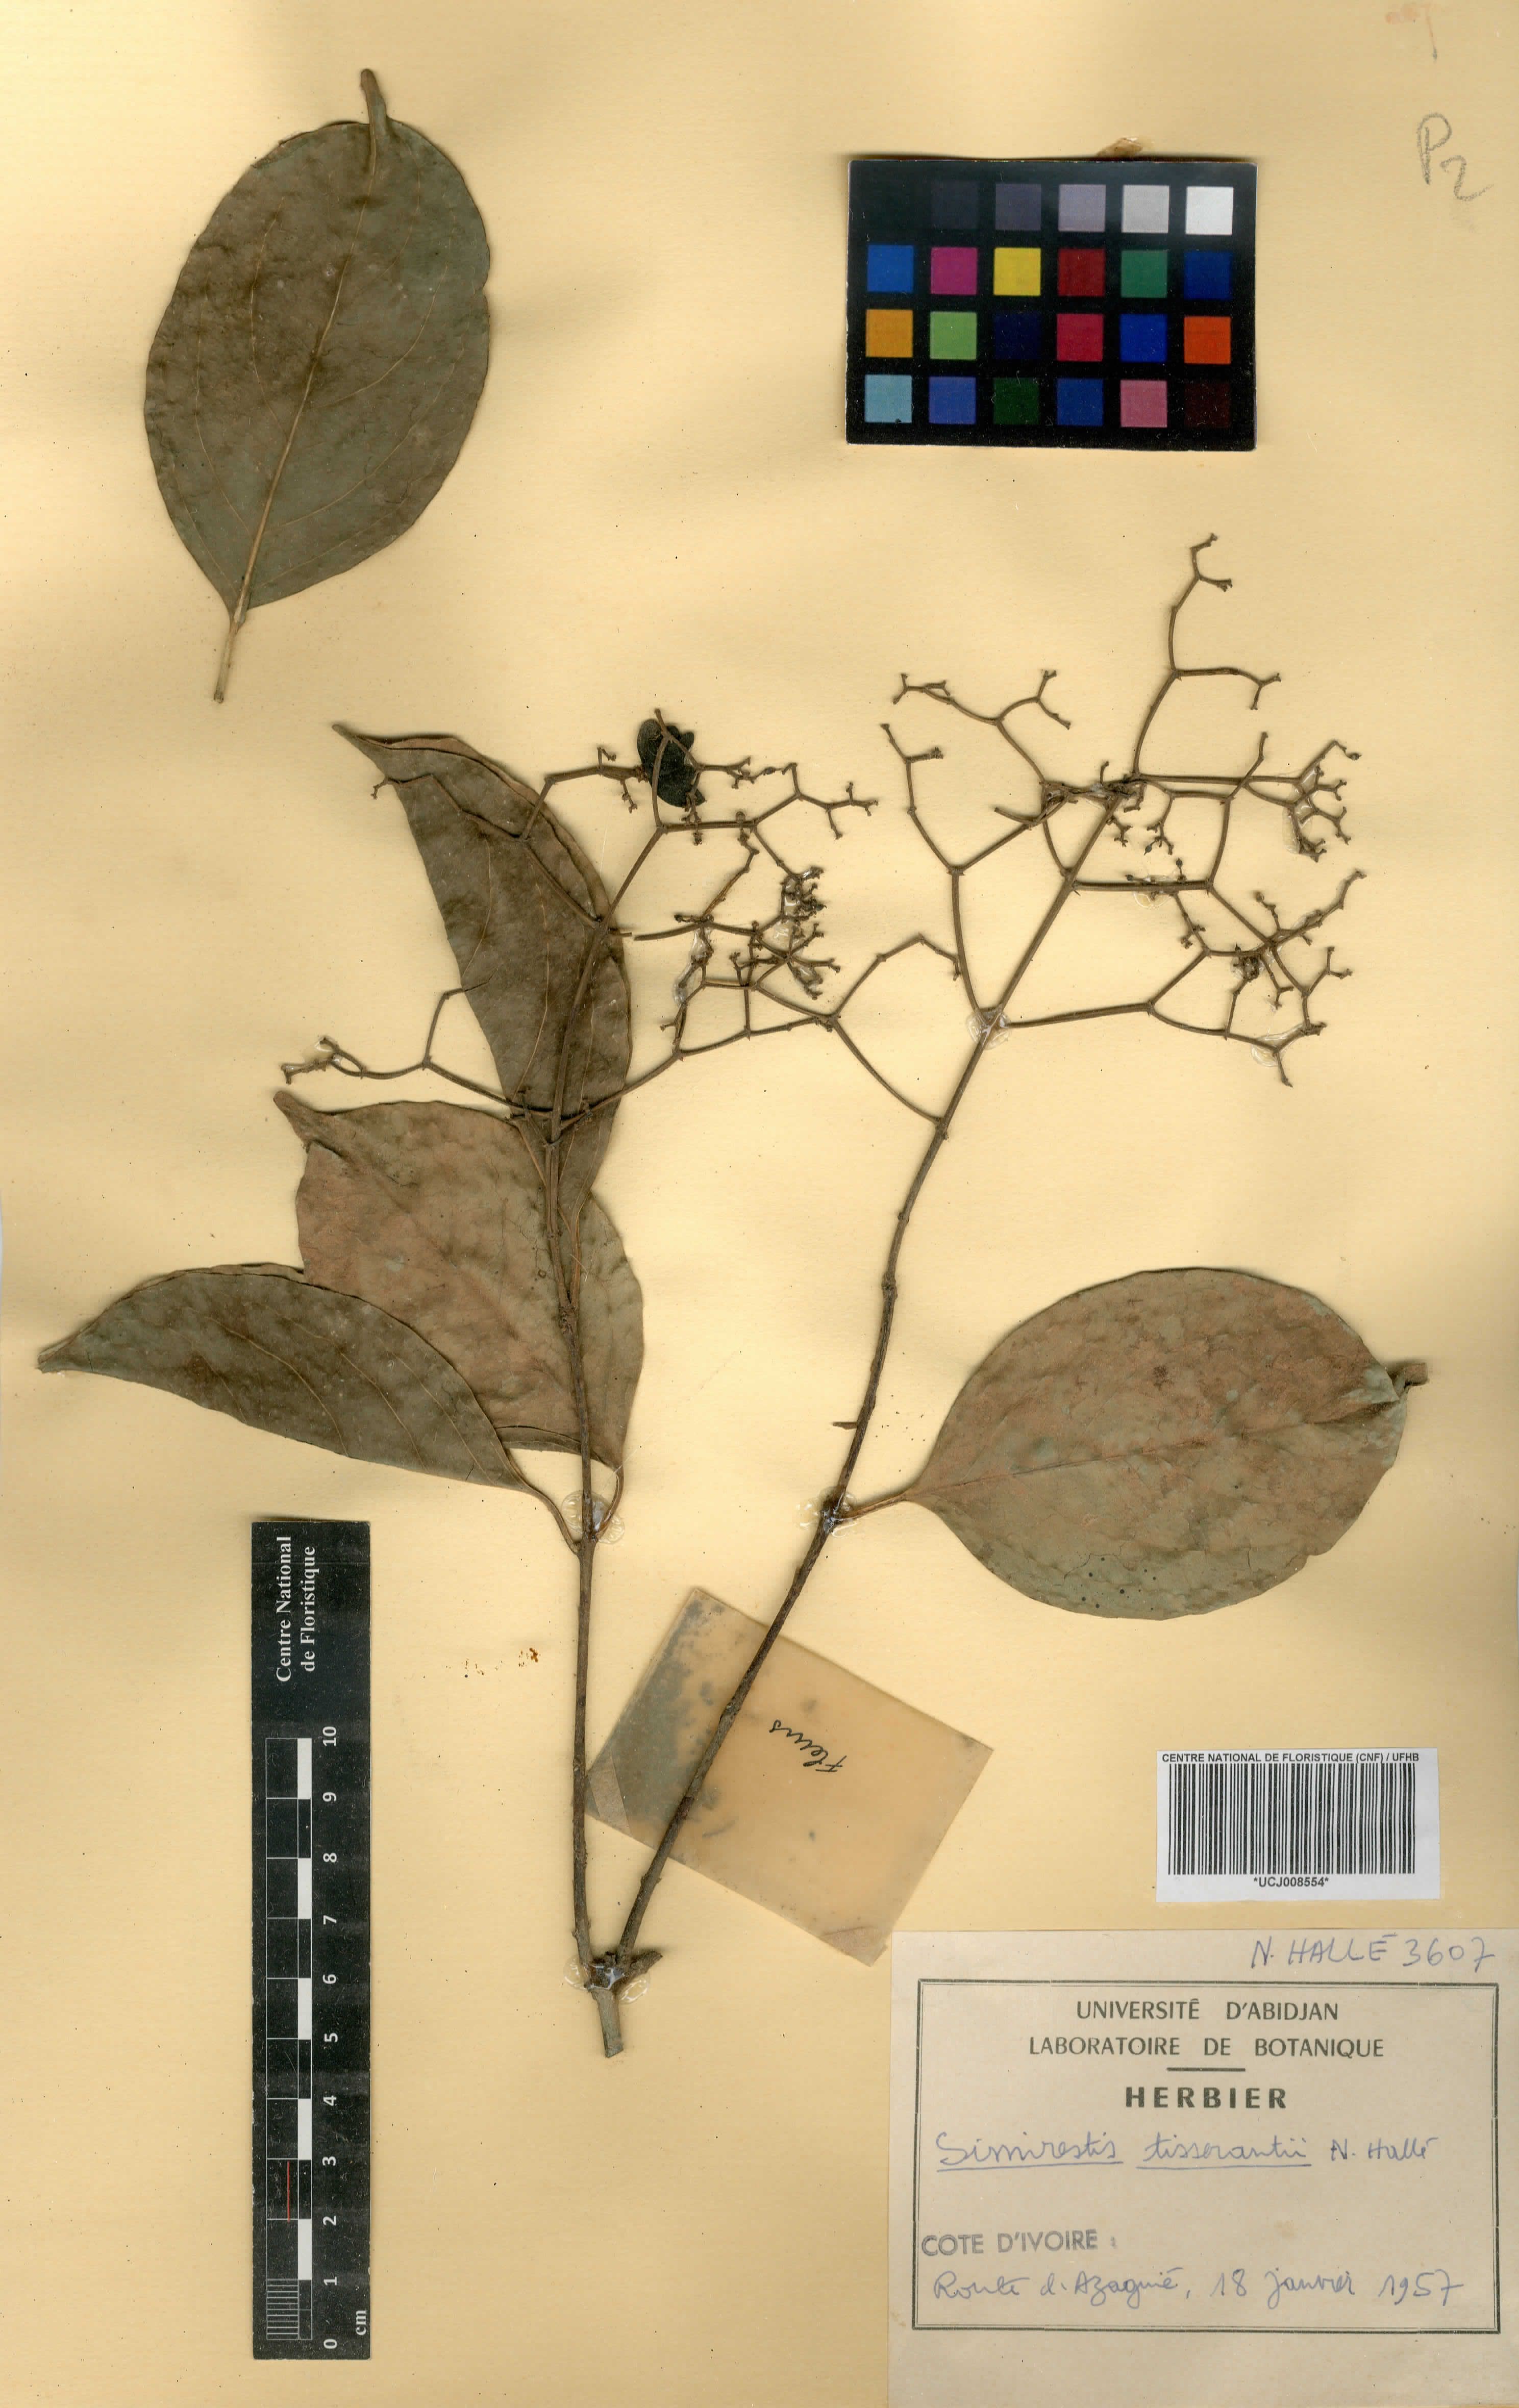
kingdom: Plantae
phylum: Tracheophyta
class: Magnoliopsida
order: Celastrales
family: Celastraceae
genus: Pristimera
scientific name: Pristimera tisserantii
